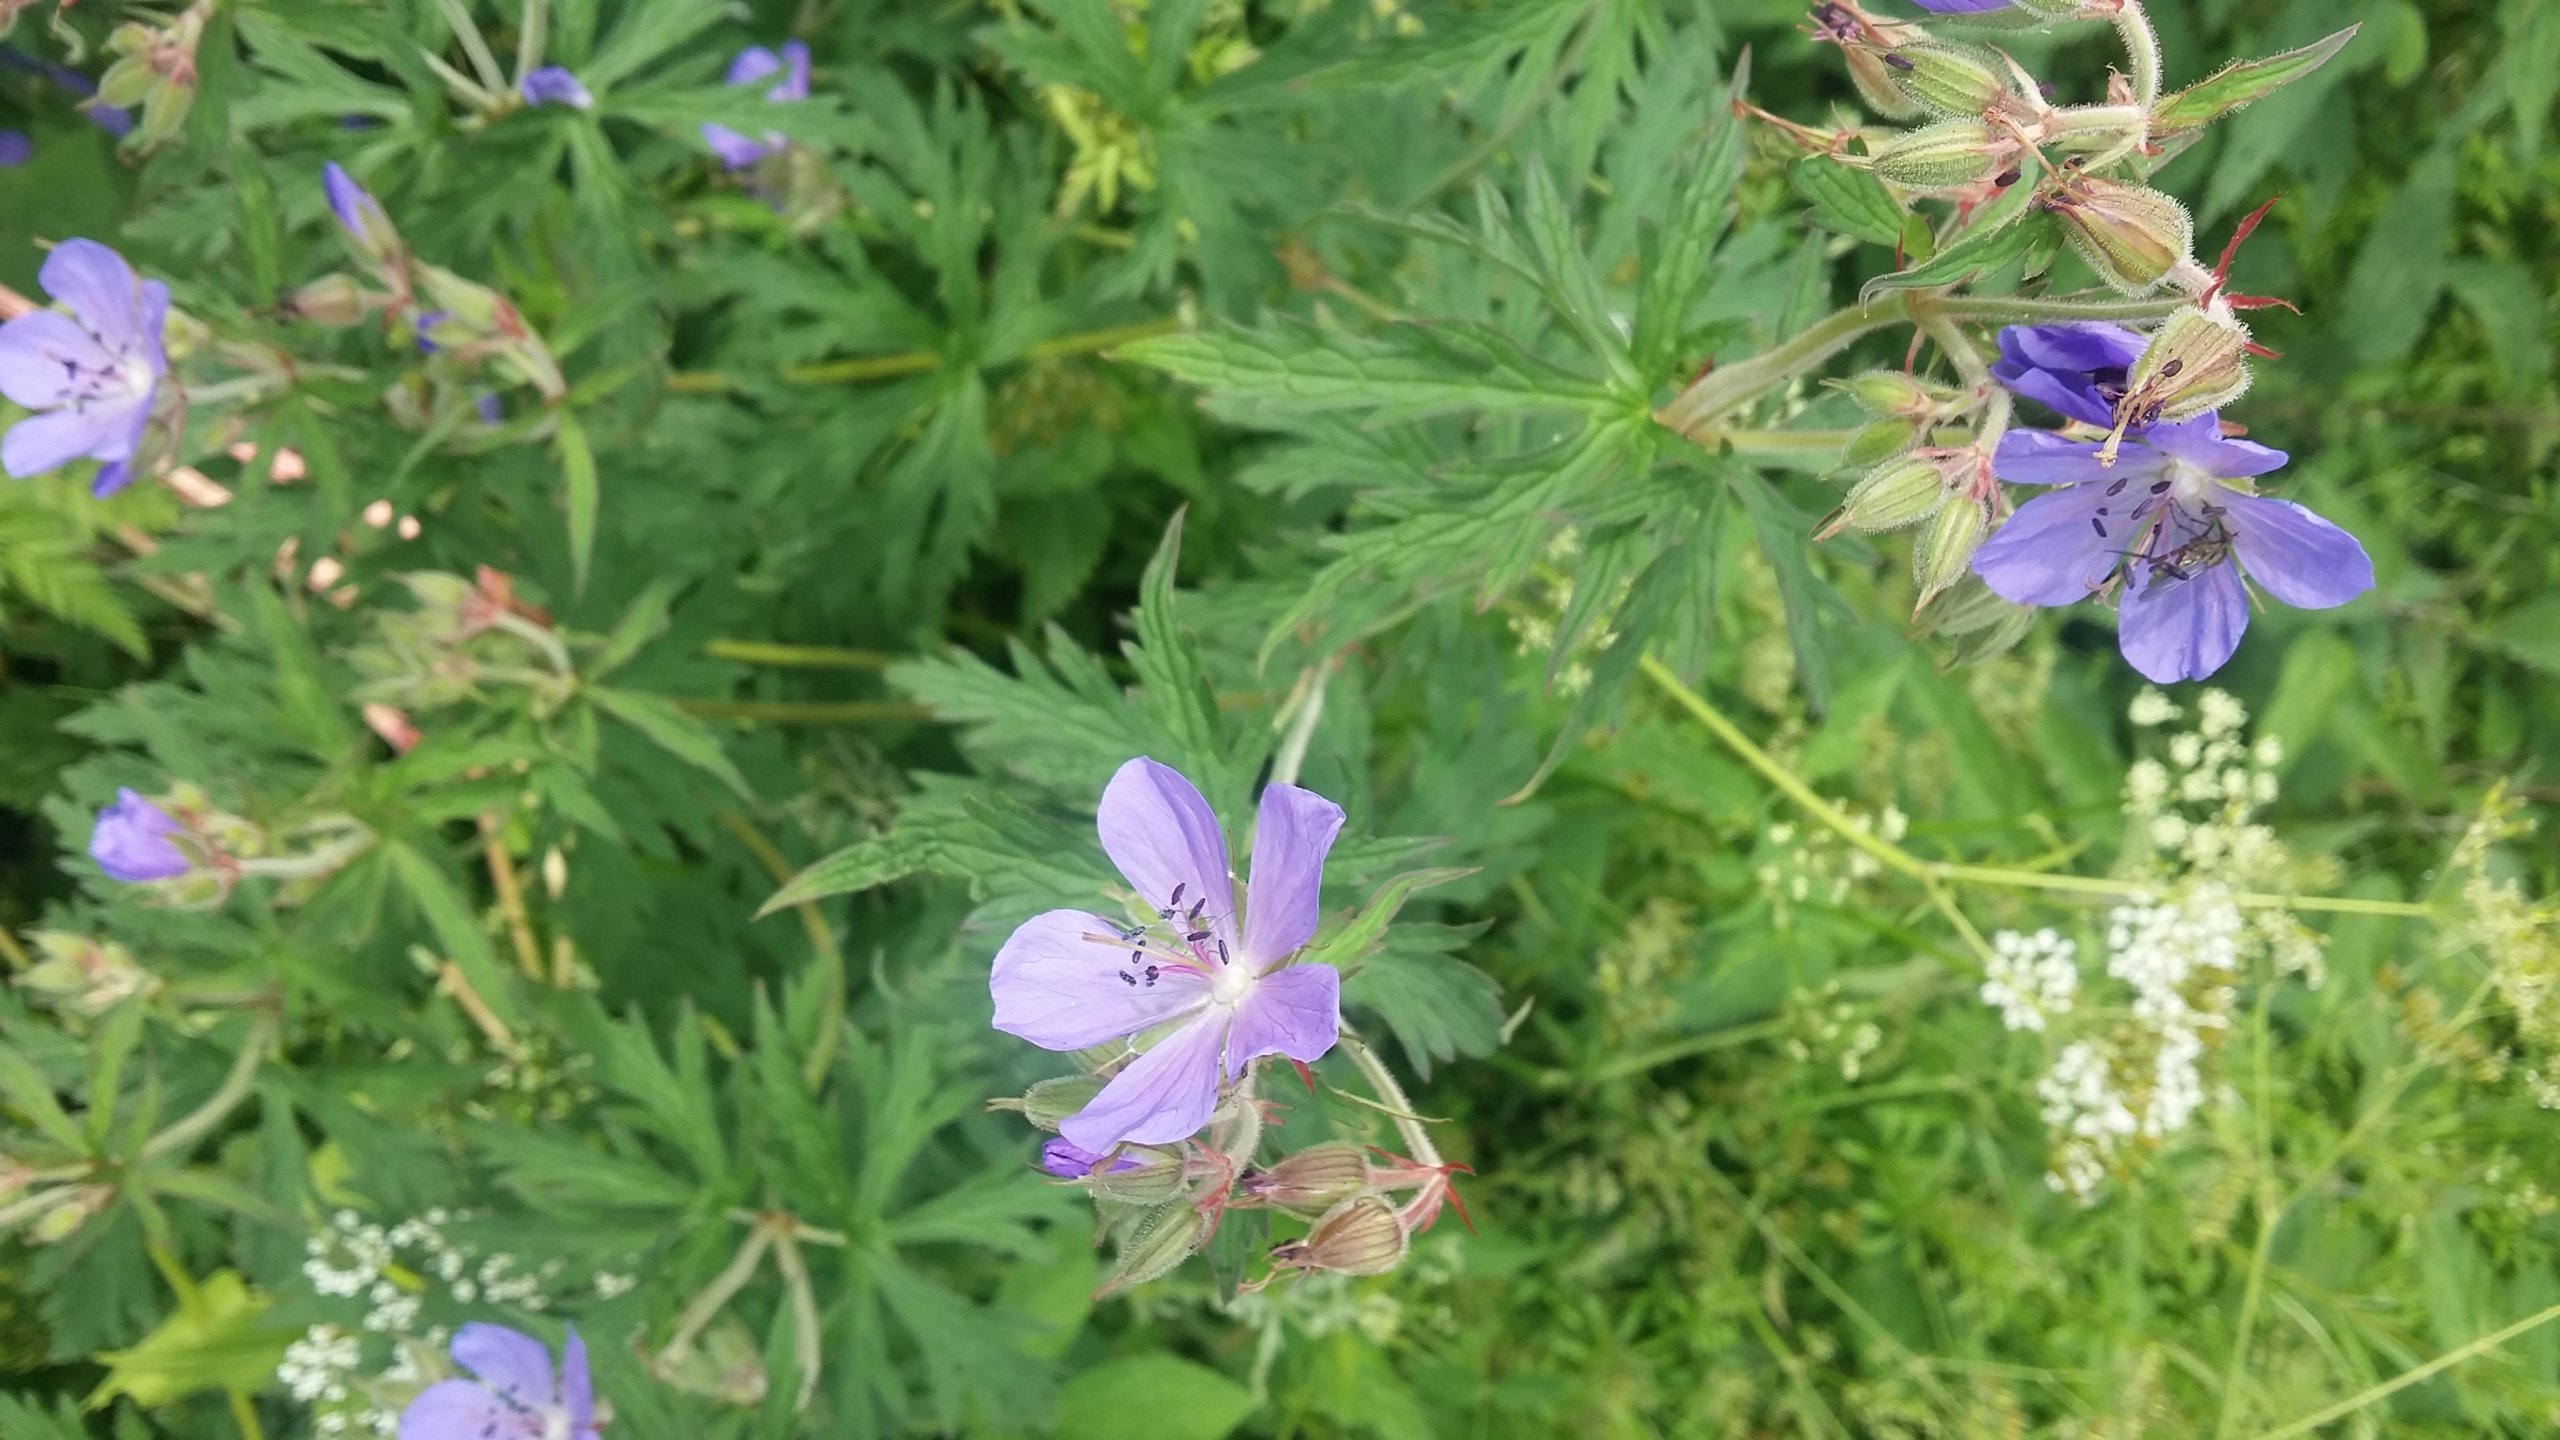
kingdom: Plantae
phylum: Tracheophyta
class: Magnoliopsida
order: Geraniales
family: Geraniaceae
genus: Geranium
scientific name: Geranium pratense
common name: Eng-storkenæb
